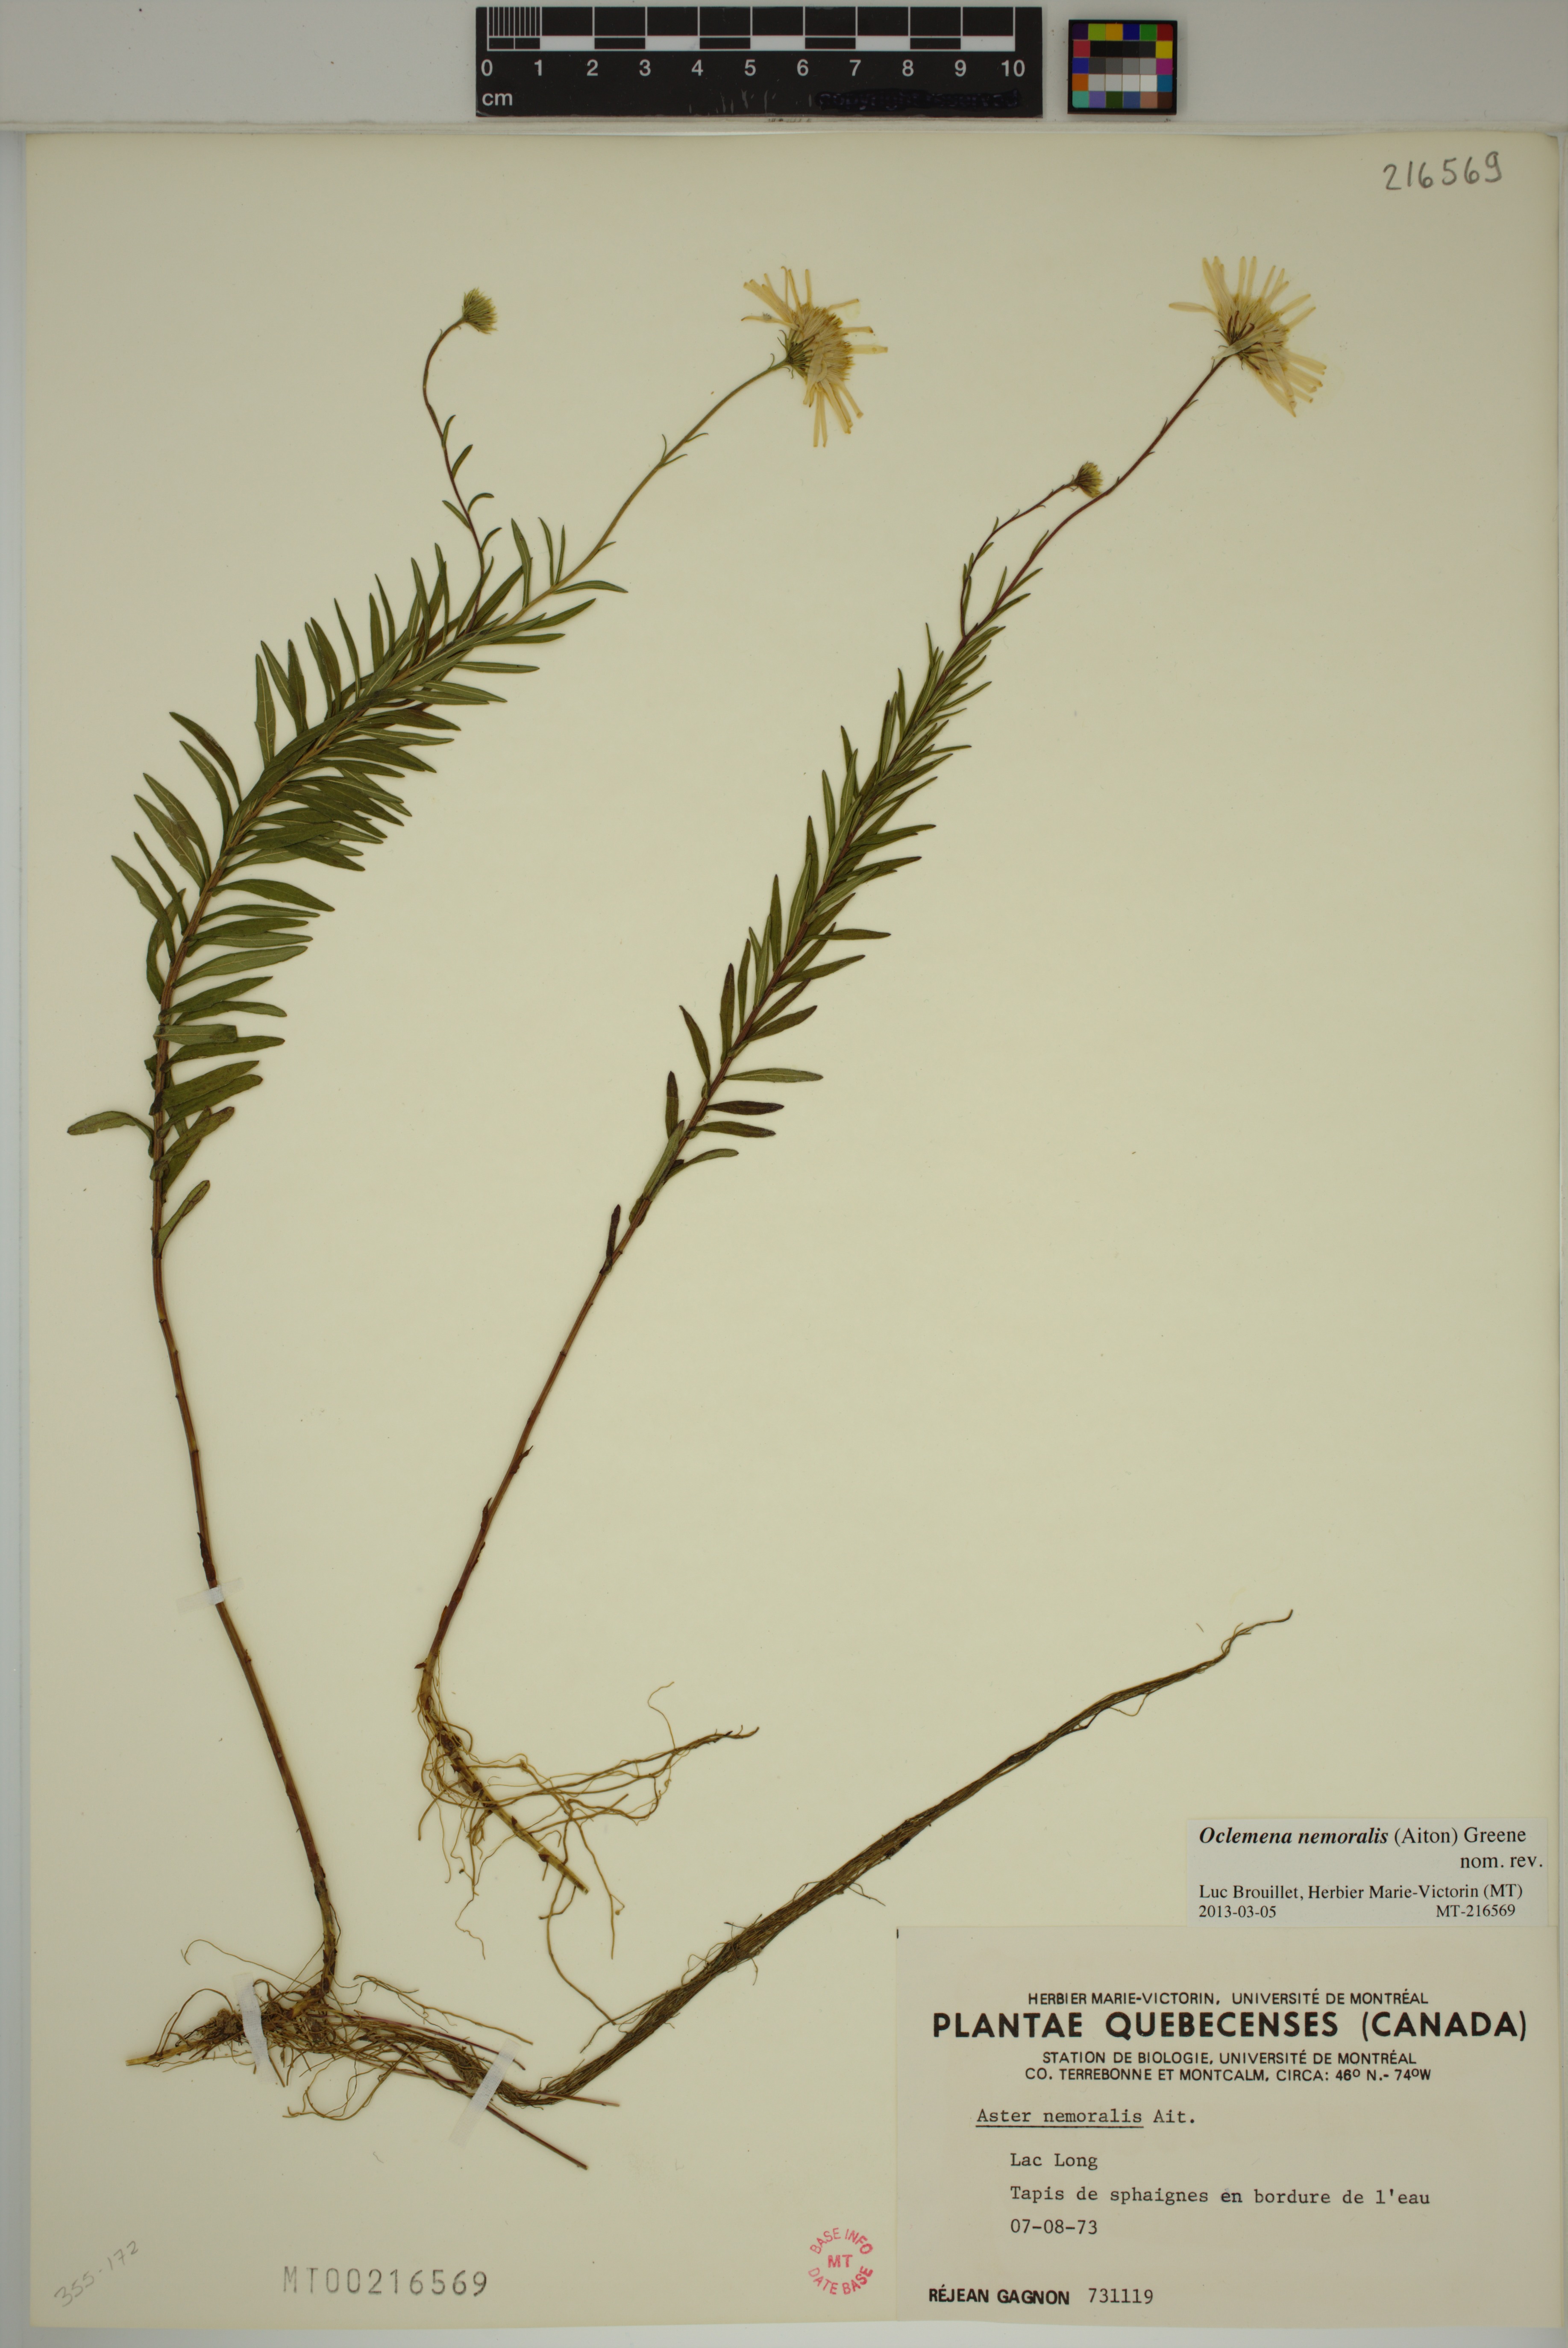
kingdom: Plantae
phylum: Tracheophyta
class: Magnoliopsida
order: Asterales
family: Asteraceae
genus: Oclemena
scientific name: Oclemena nemoralis
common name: Bog aster
